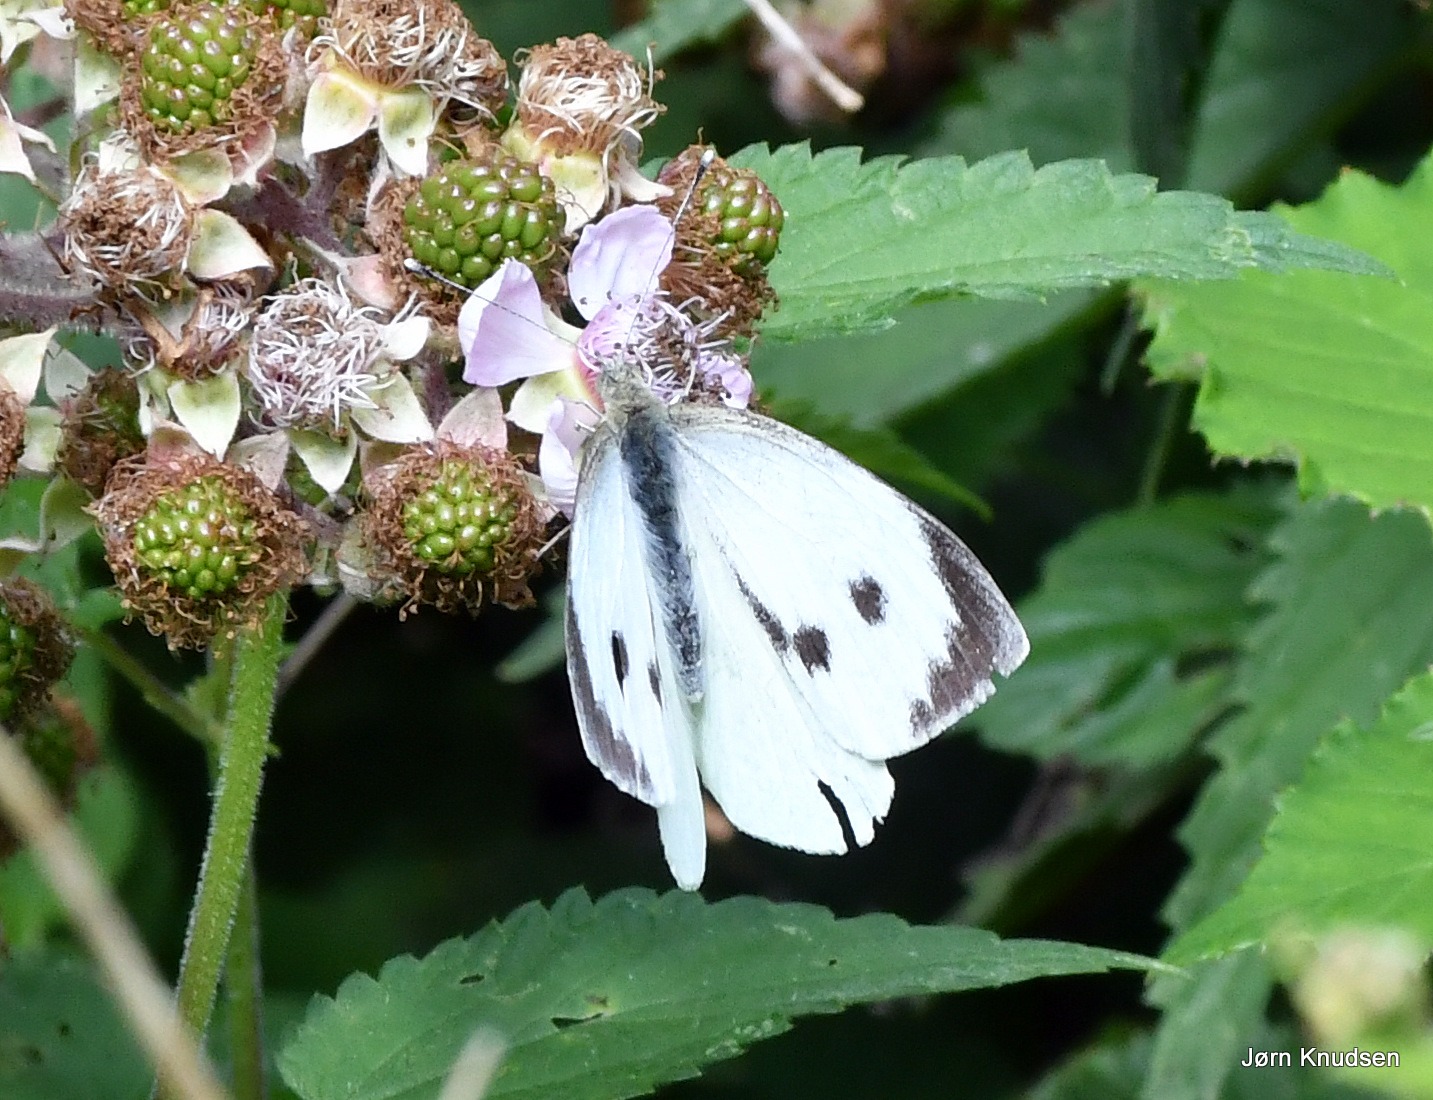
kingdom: Animalia
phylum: Arthropoda
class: Insecta
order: Lepidoptera
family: Pieridae
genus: Pieris
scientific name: Pieris brassicae
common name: Stor kålsommerfugl
